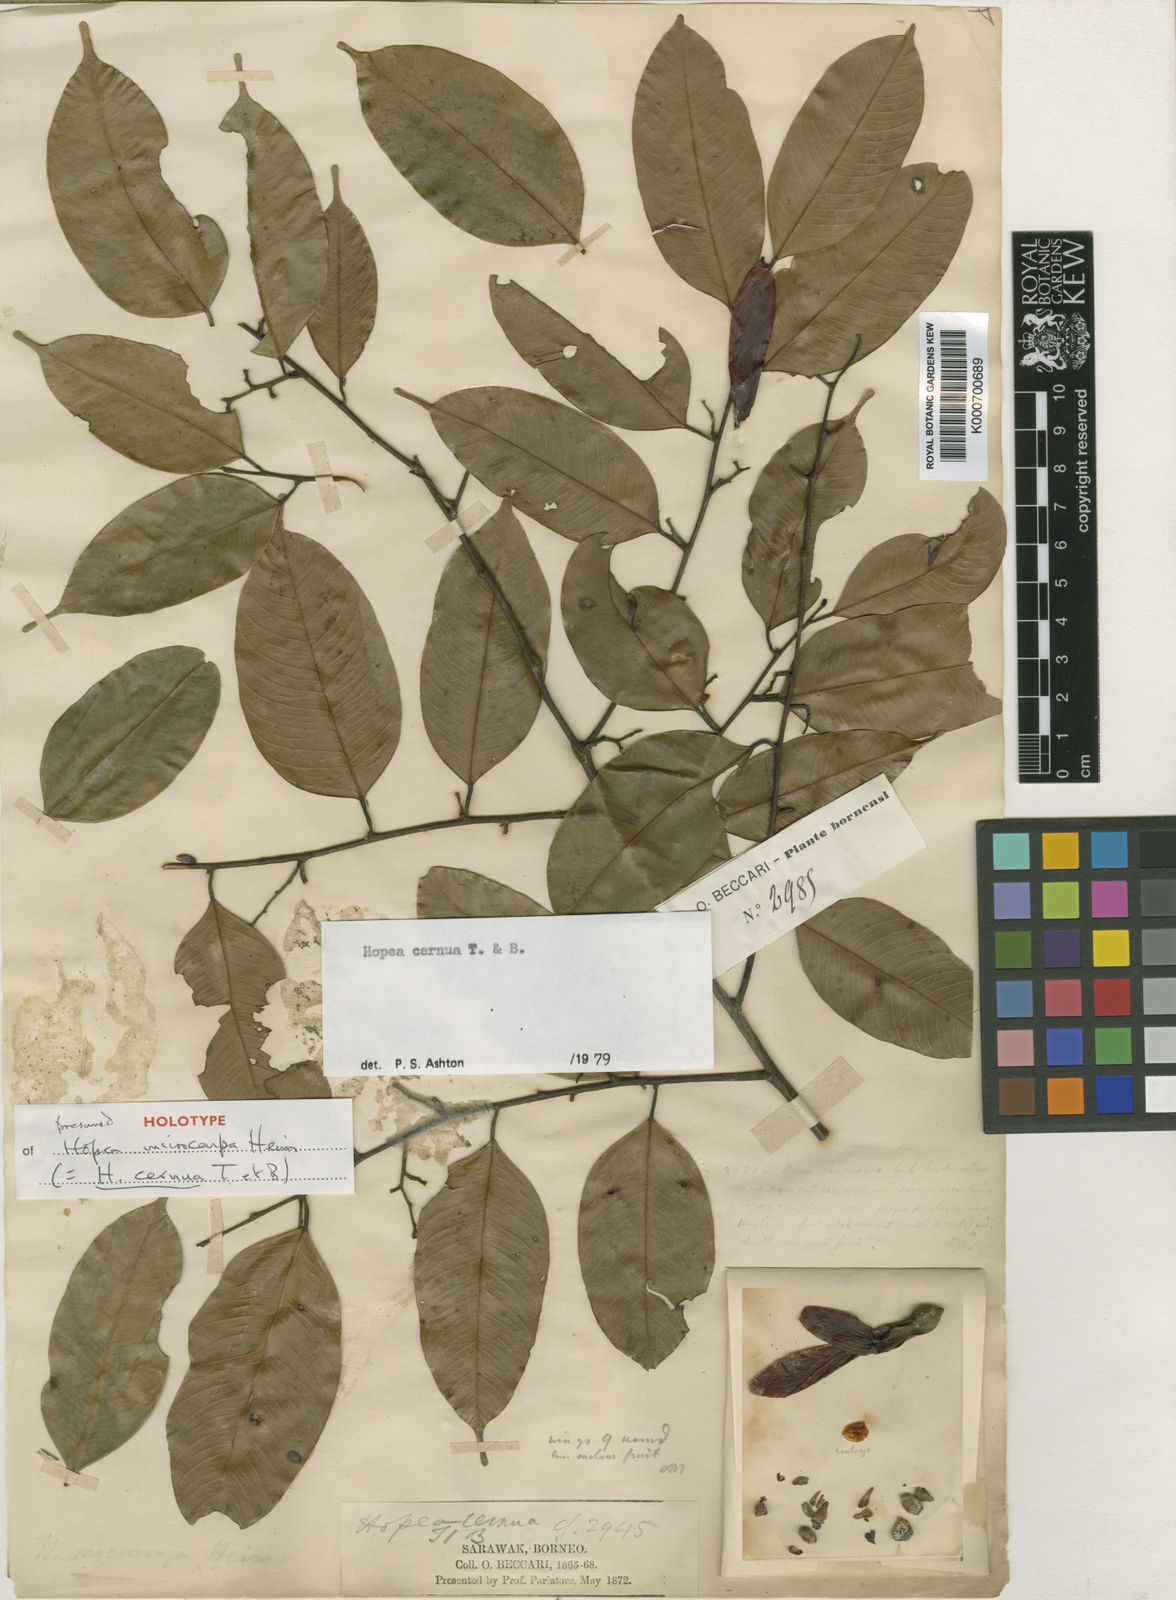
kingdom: Plantae
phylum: Tracheophyta
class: Magnoliopsida
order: Malvales
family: Dipterocarpaceae
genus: Hopea
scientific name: Hopea cernua
